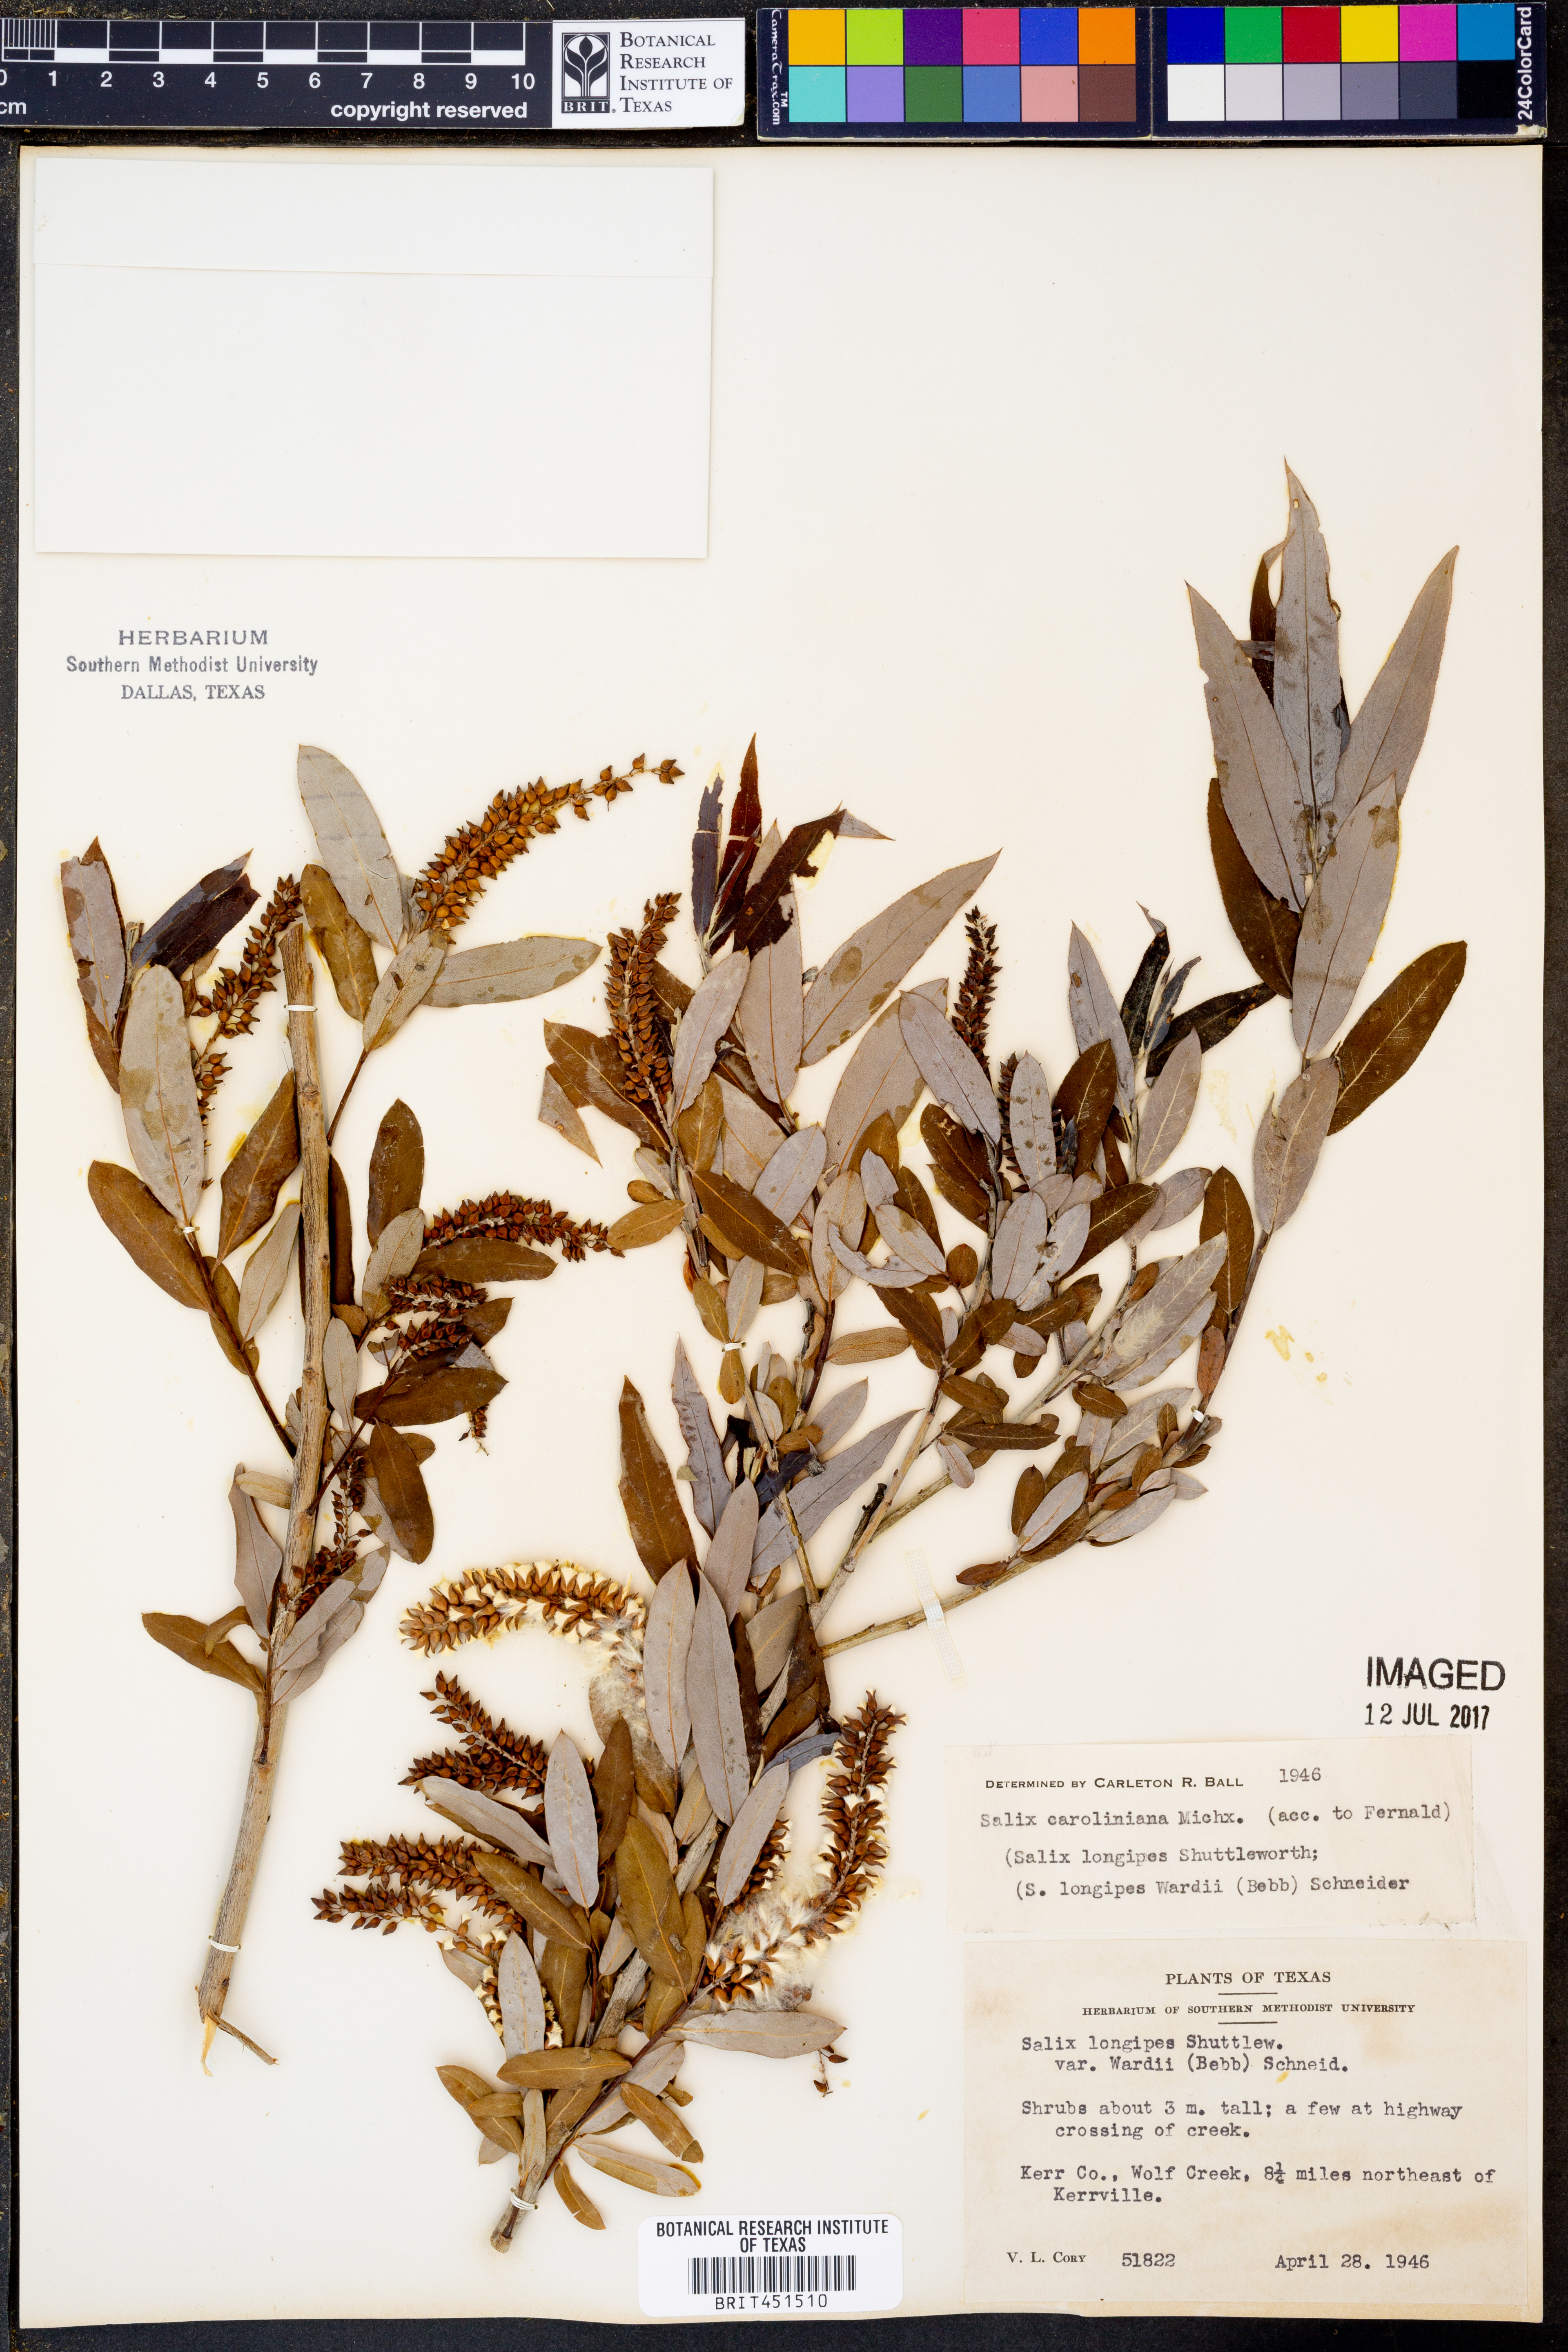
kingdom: Plantae
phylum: Tracheophyta
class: Magnoliopsida
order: Malpighiales
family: Salicaceae
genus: Salix
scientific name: Salix caroliniana
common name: Carolina willow
